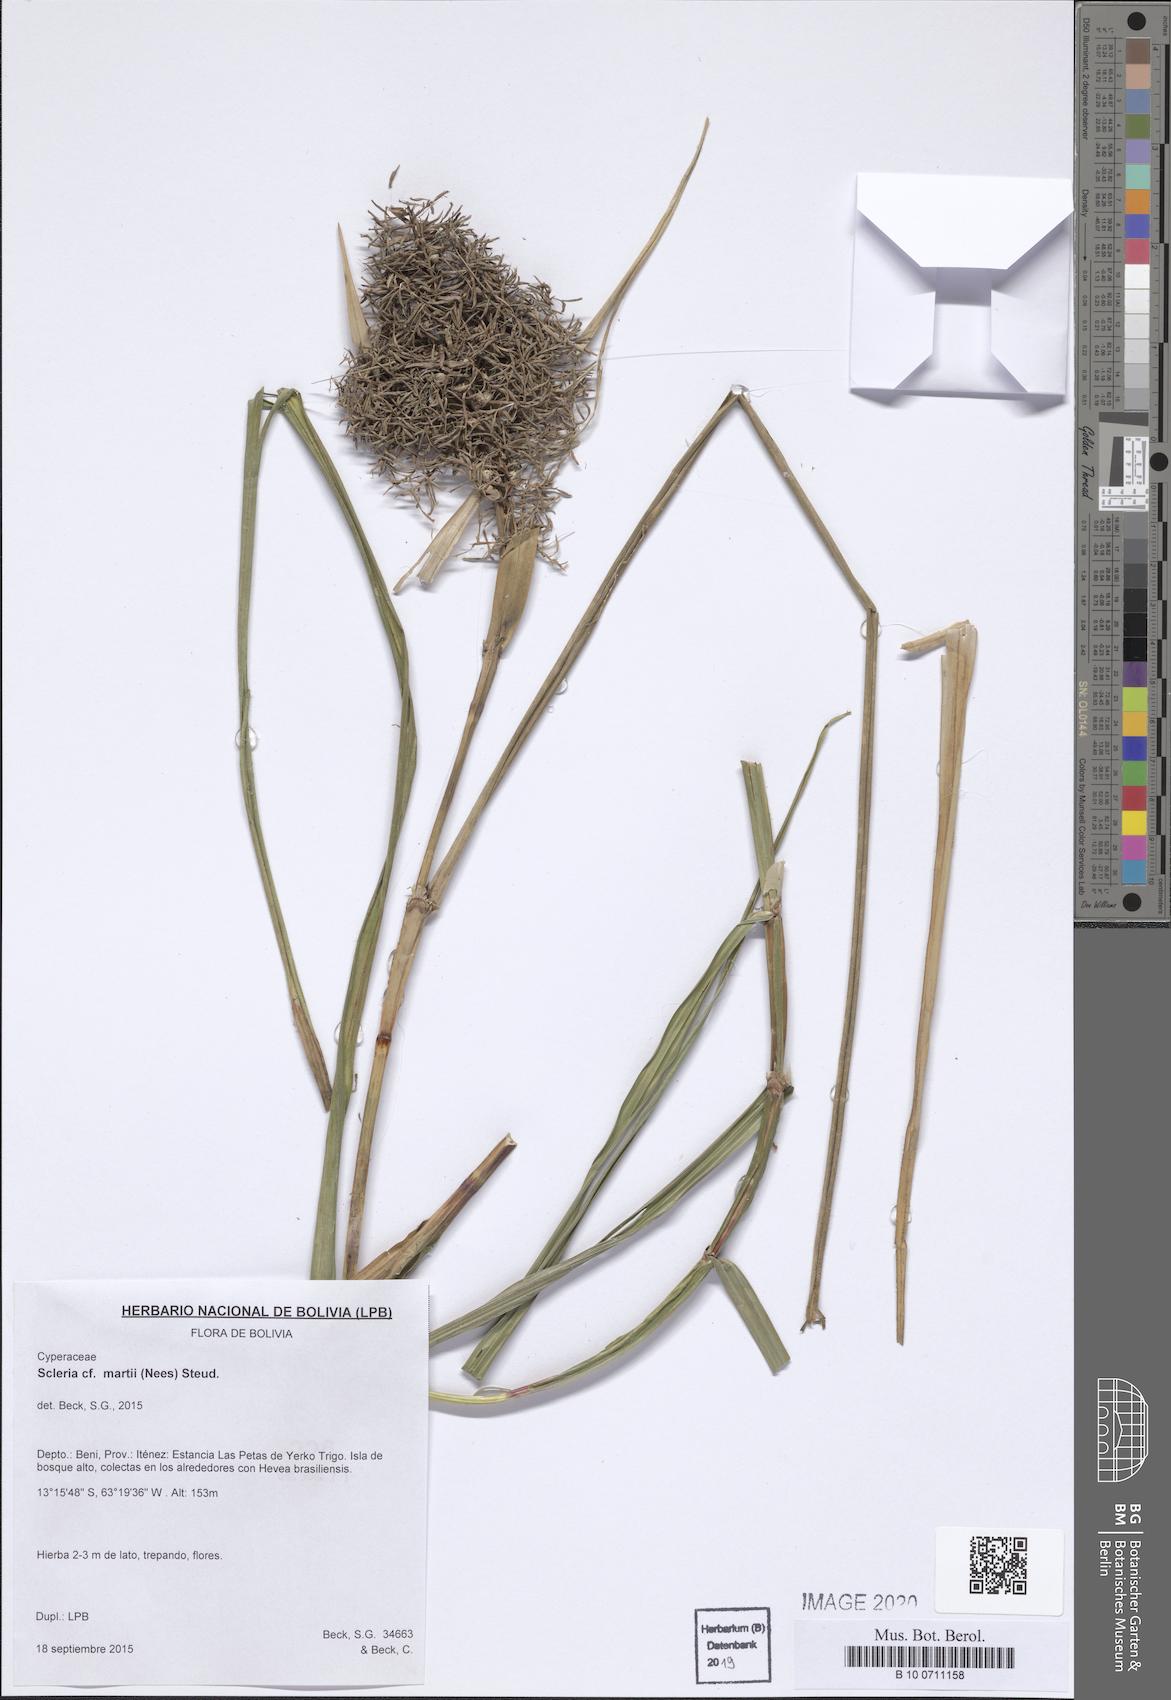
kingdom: Plantae
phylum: Tracheophyta
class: Liliopsida
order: Poales
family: Cyperaceae
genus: Scleria
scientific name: Scleria martii
